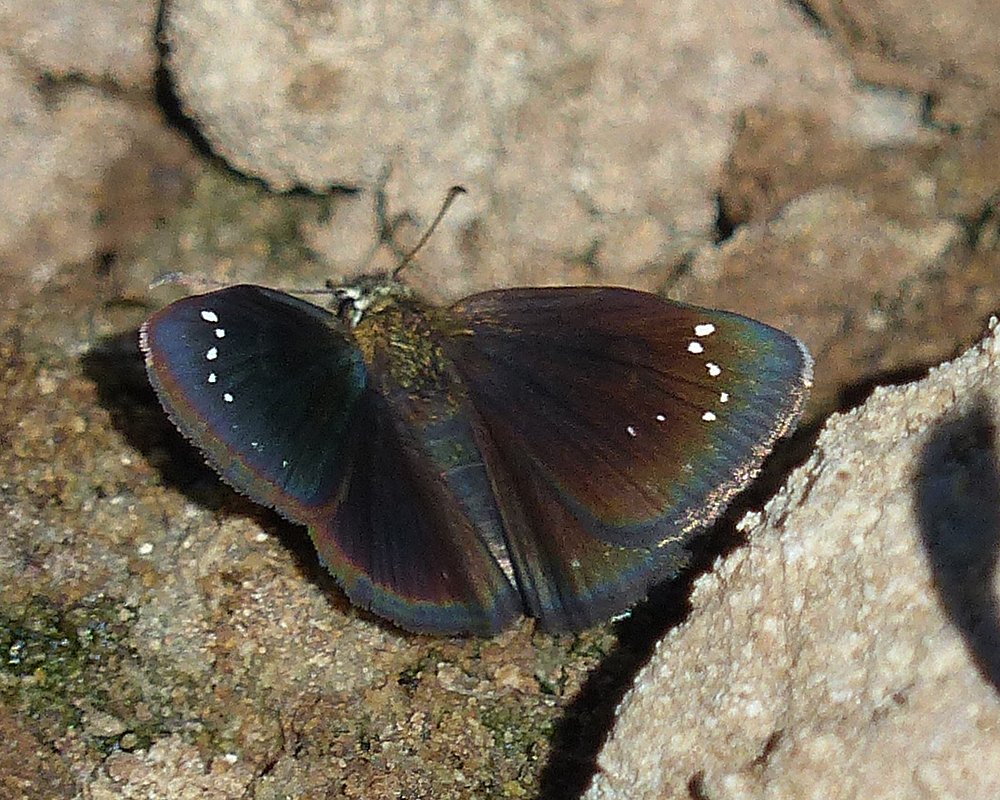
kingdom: Animalia
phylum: Arthropoda
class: Insecta
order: Lepidoptera
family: Hesperiidae
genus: Pholisora
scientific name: Pholisora catullus
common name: Common Sootywing
